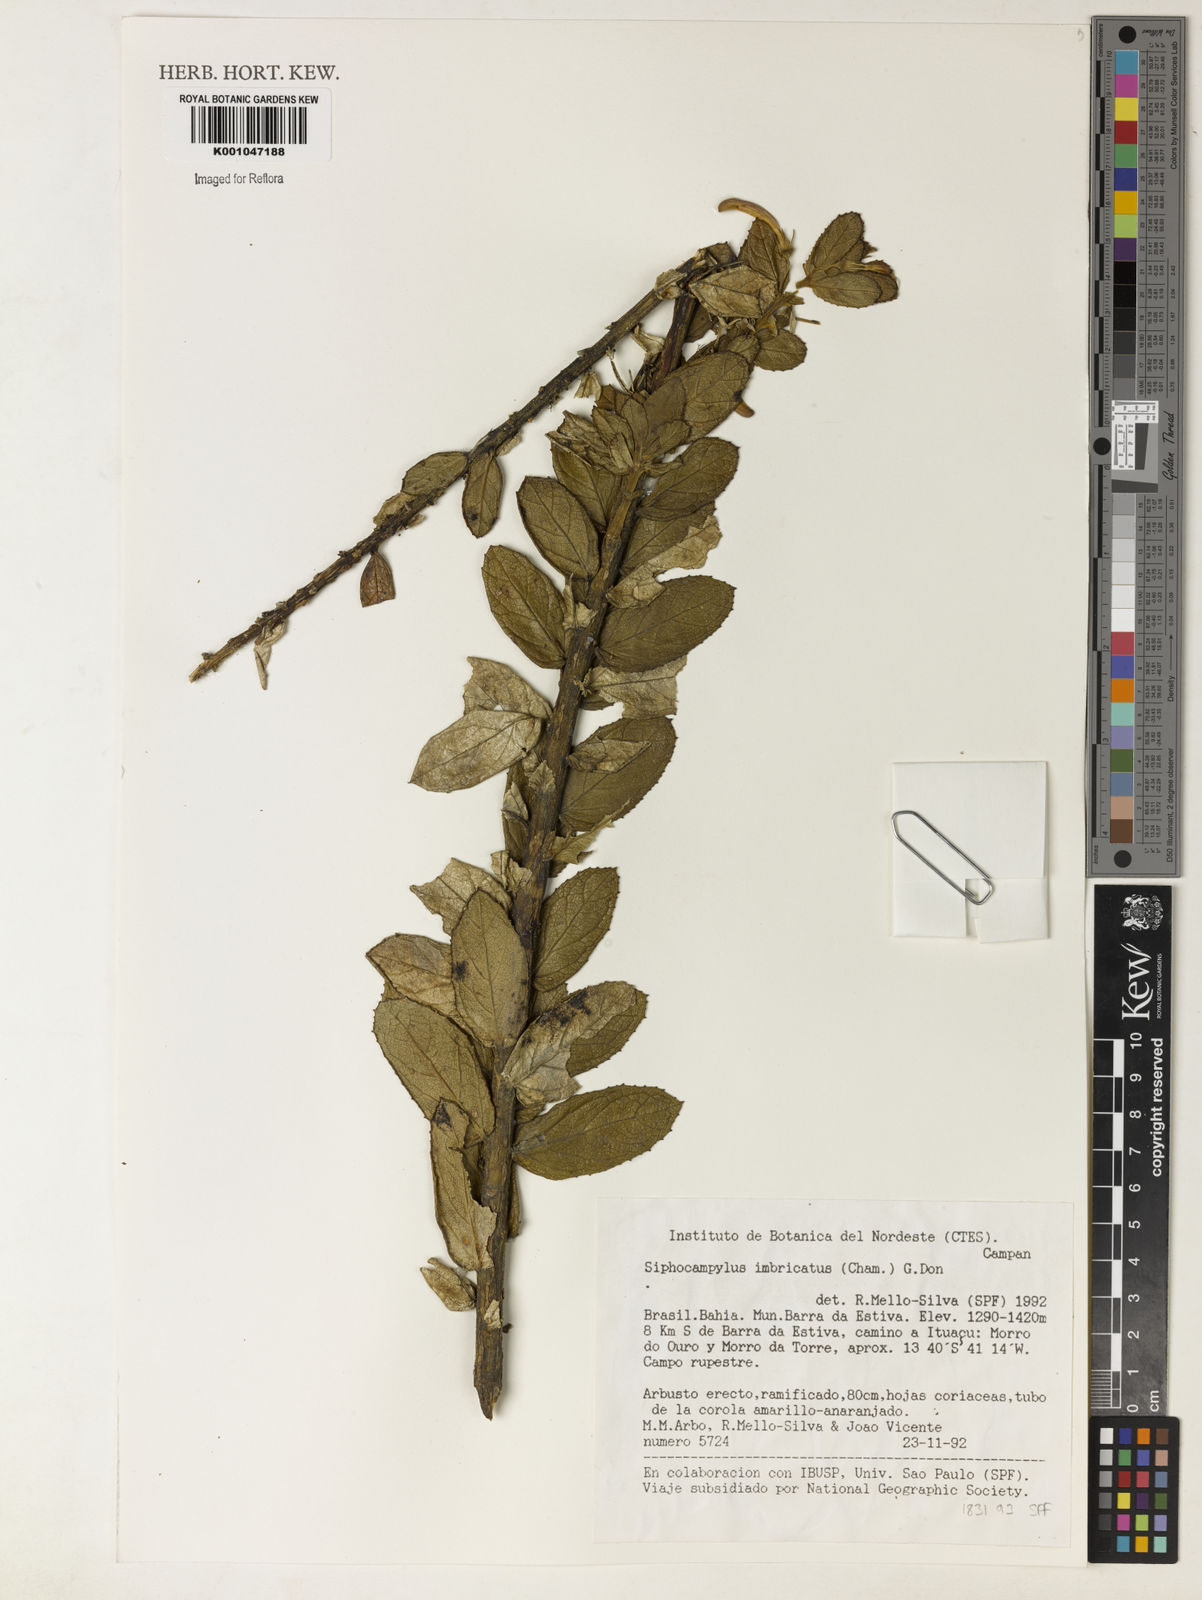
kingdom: Plantae
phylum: Tracheophyta
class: Magnoliopsida
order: Asterales
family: Campanulaceae
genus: Siphocampylus
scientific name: Siphocampylus imbricatus
